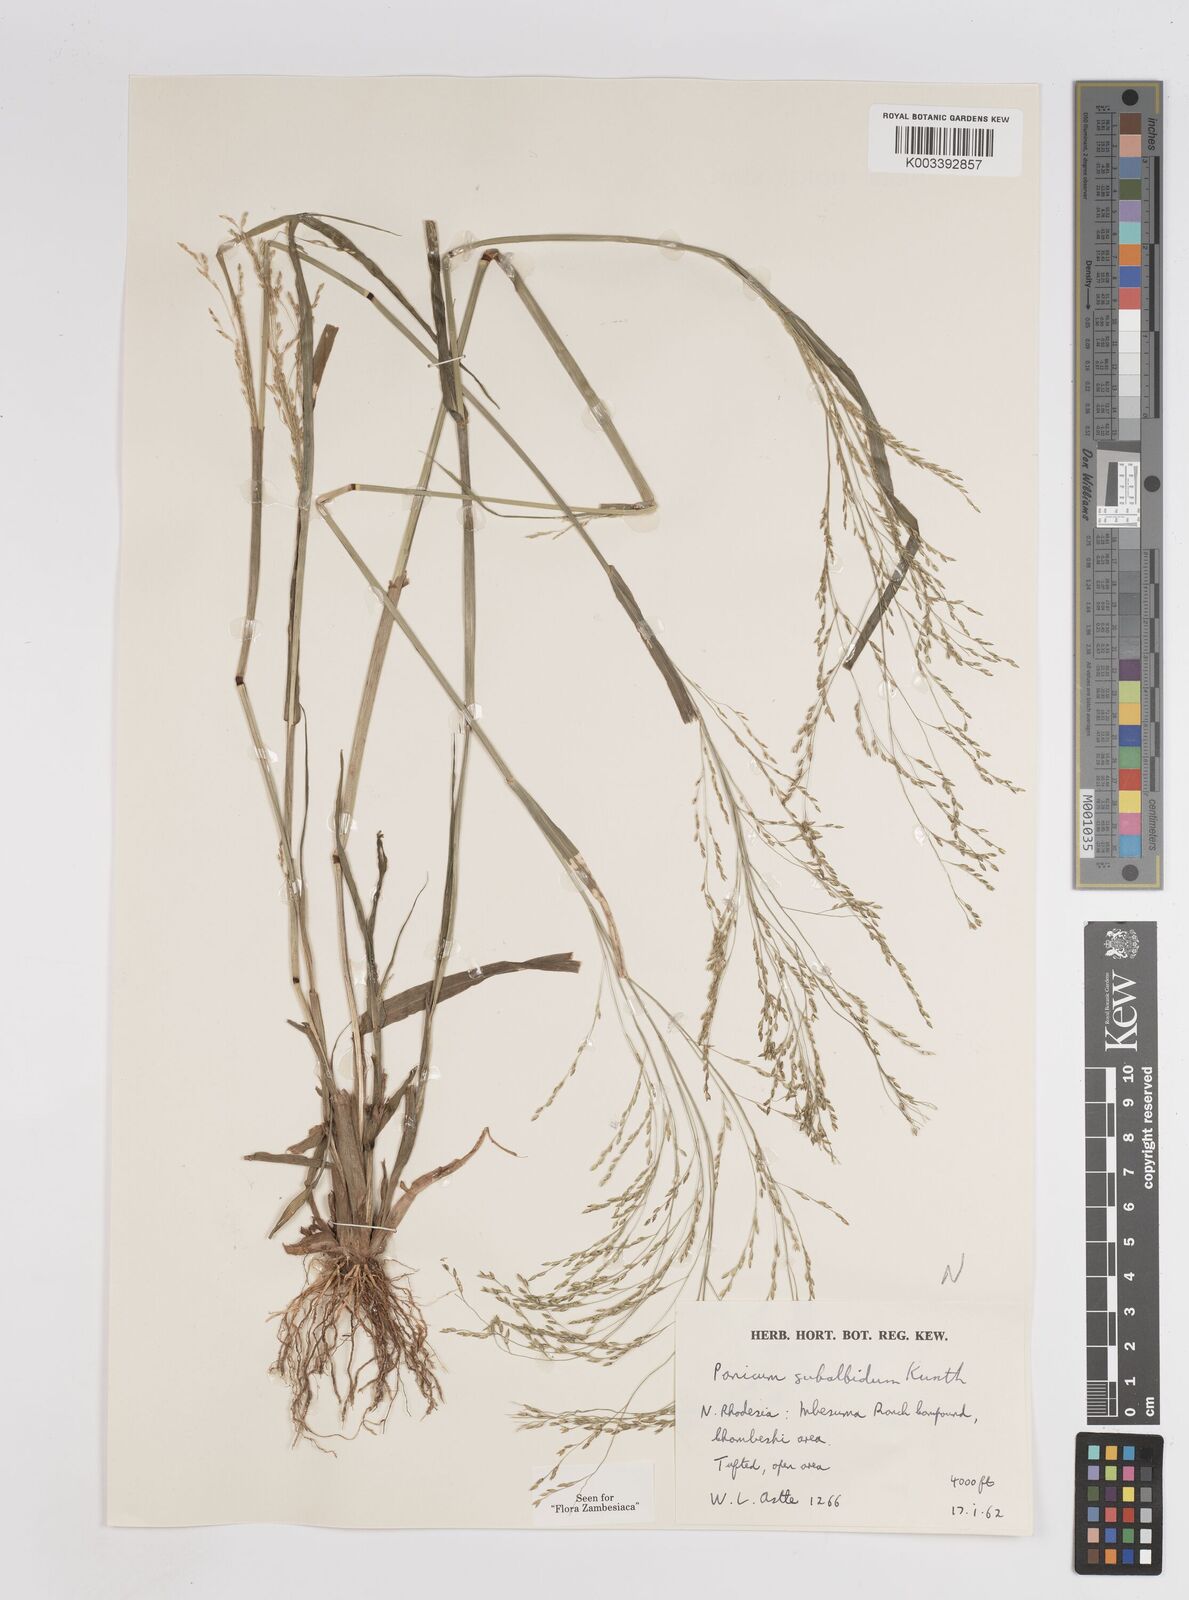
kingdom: Plantae
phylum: Tracheophyta
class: Liliopsida
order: Poales
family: Poaceae
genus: Panicum
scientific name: Panicum subalbidum
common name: Elbow buffalo grass
